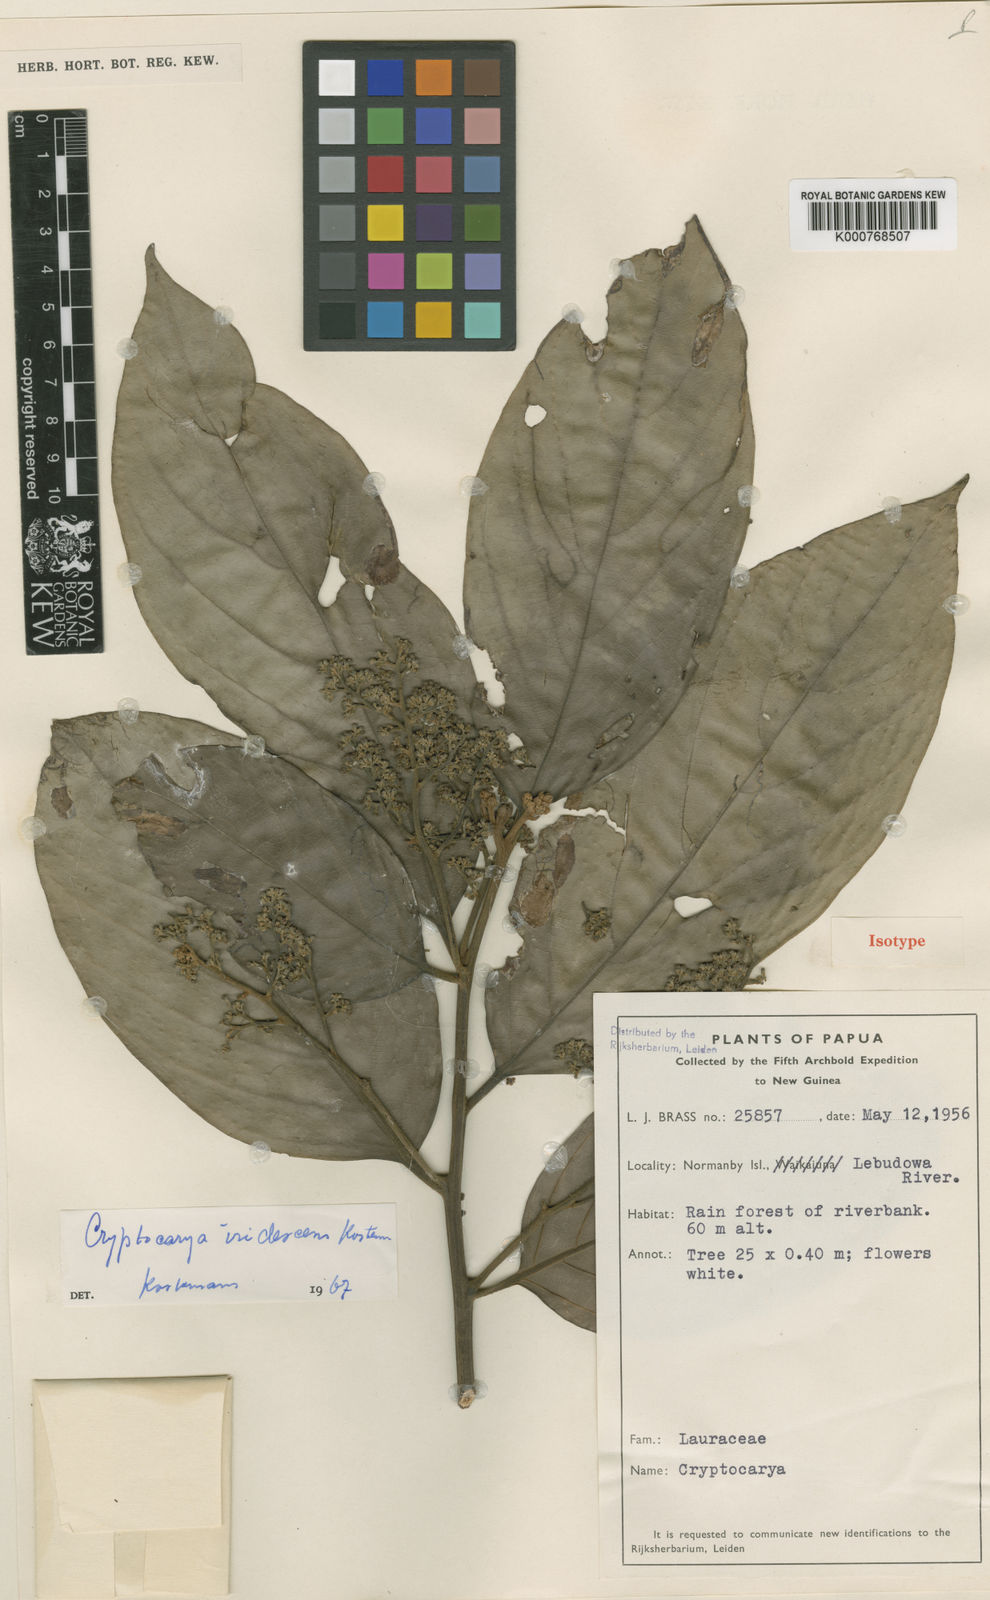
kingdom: Plantae
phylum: Tracheophyta
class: Magnoliopsida
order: Laurales
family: Lauraceae
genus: Cryptocarya
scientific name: Cryptocarya iridescens
